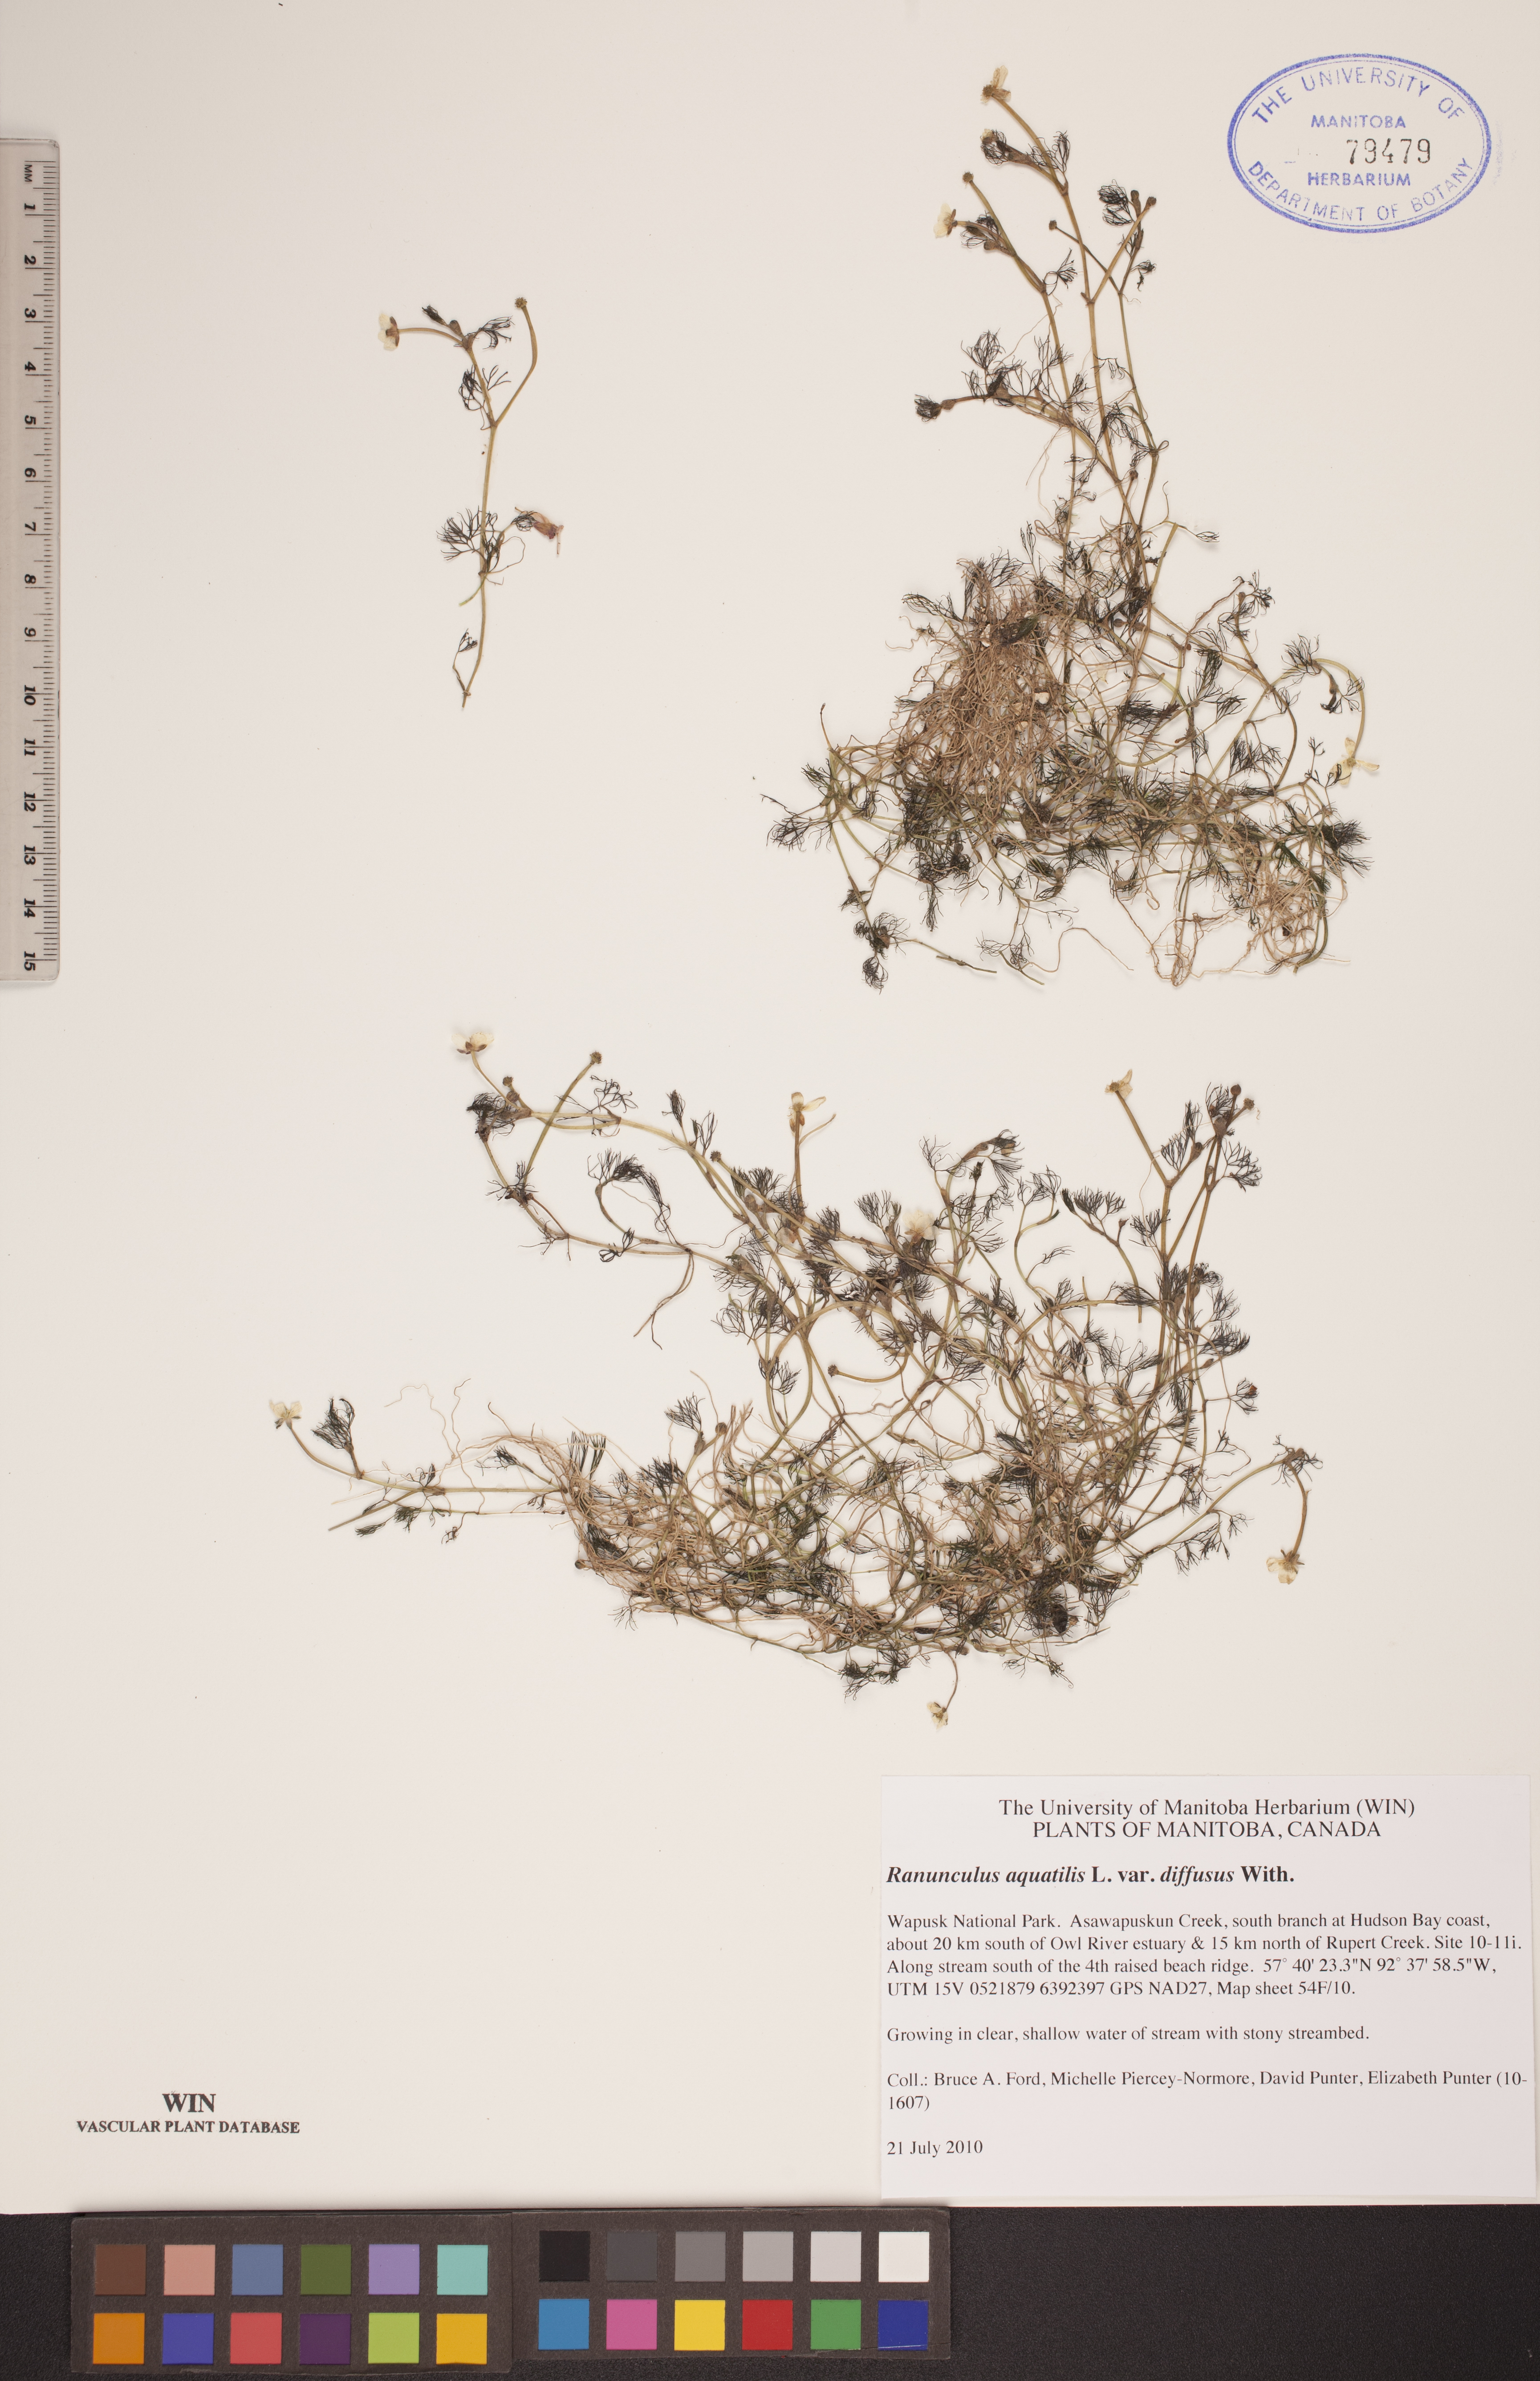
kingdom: Plantae
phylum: Tracheophyta
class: Magnoliopsida
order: Ranunculales
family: Ranunculaceae
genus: Ranunculus
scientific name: Ranunculus aquatilis
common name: Common water-crowfoot
